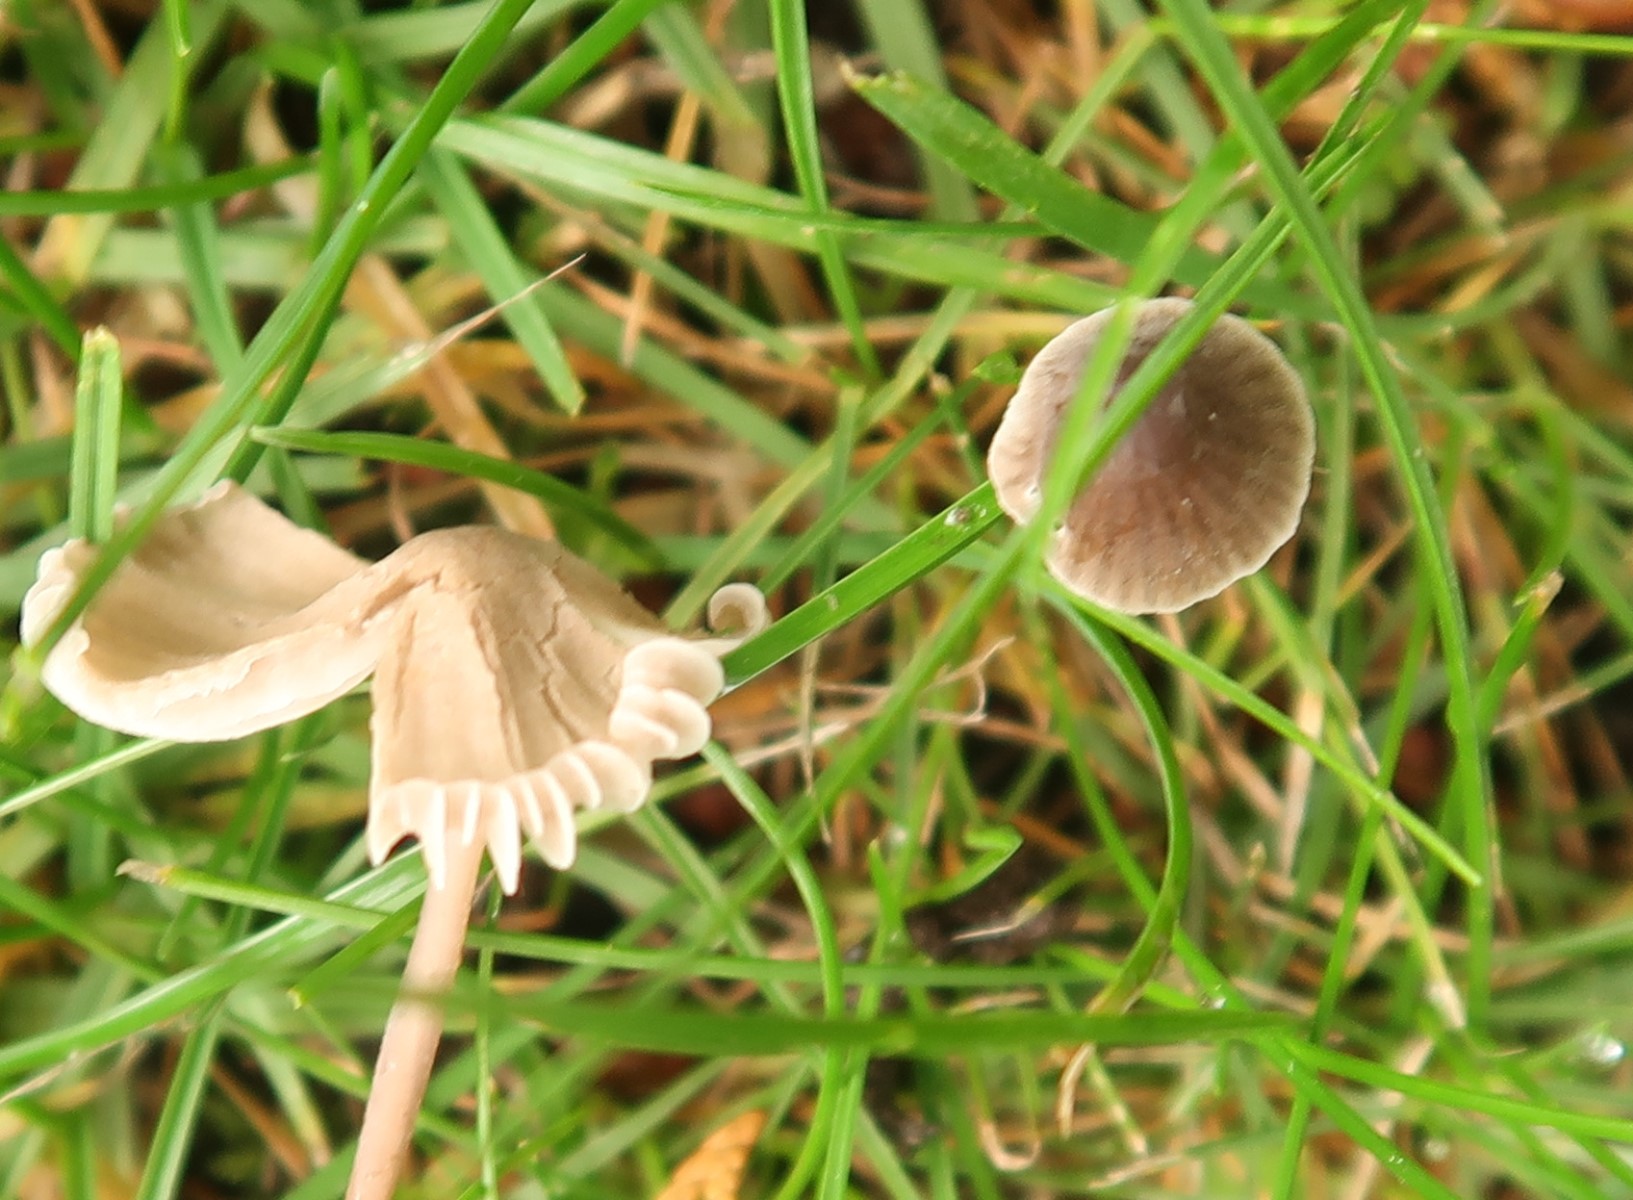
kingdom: Fungi
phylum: Basidiomycota
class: Agaricomycetes
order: Agaricales
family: Mycenaceae
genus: Mycena
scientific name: Mycena leptocephala
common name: klor-huesvamp
